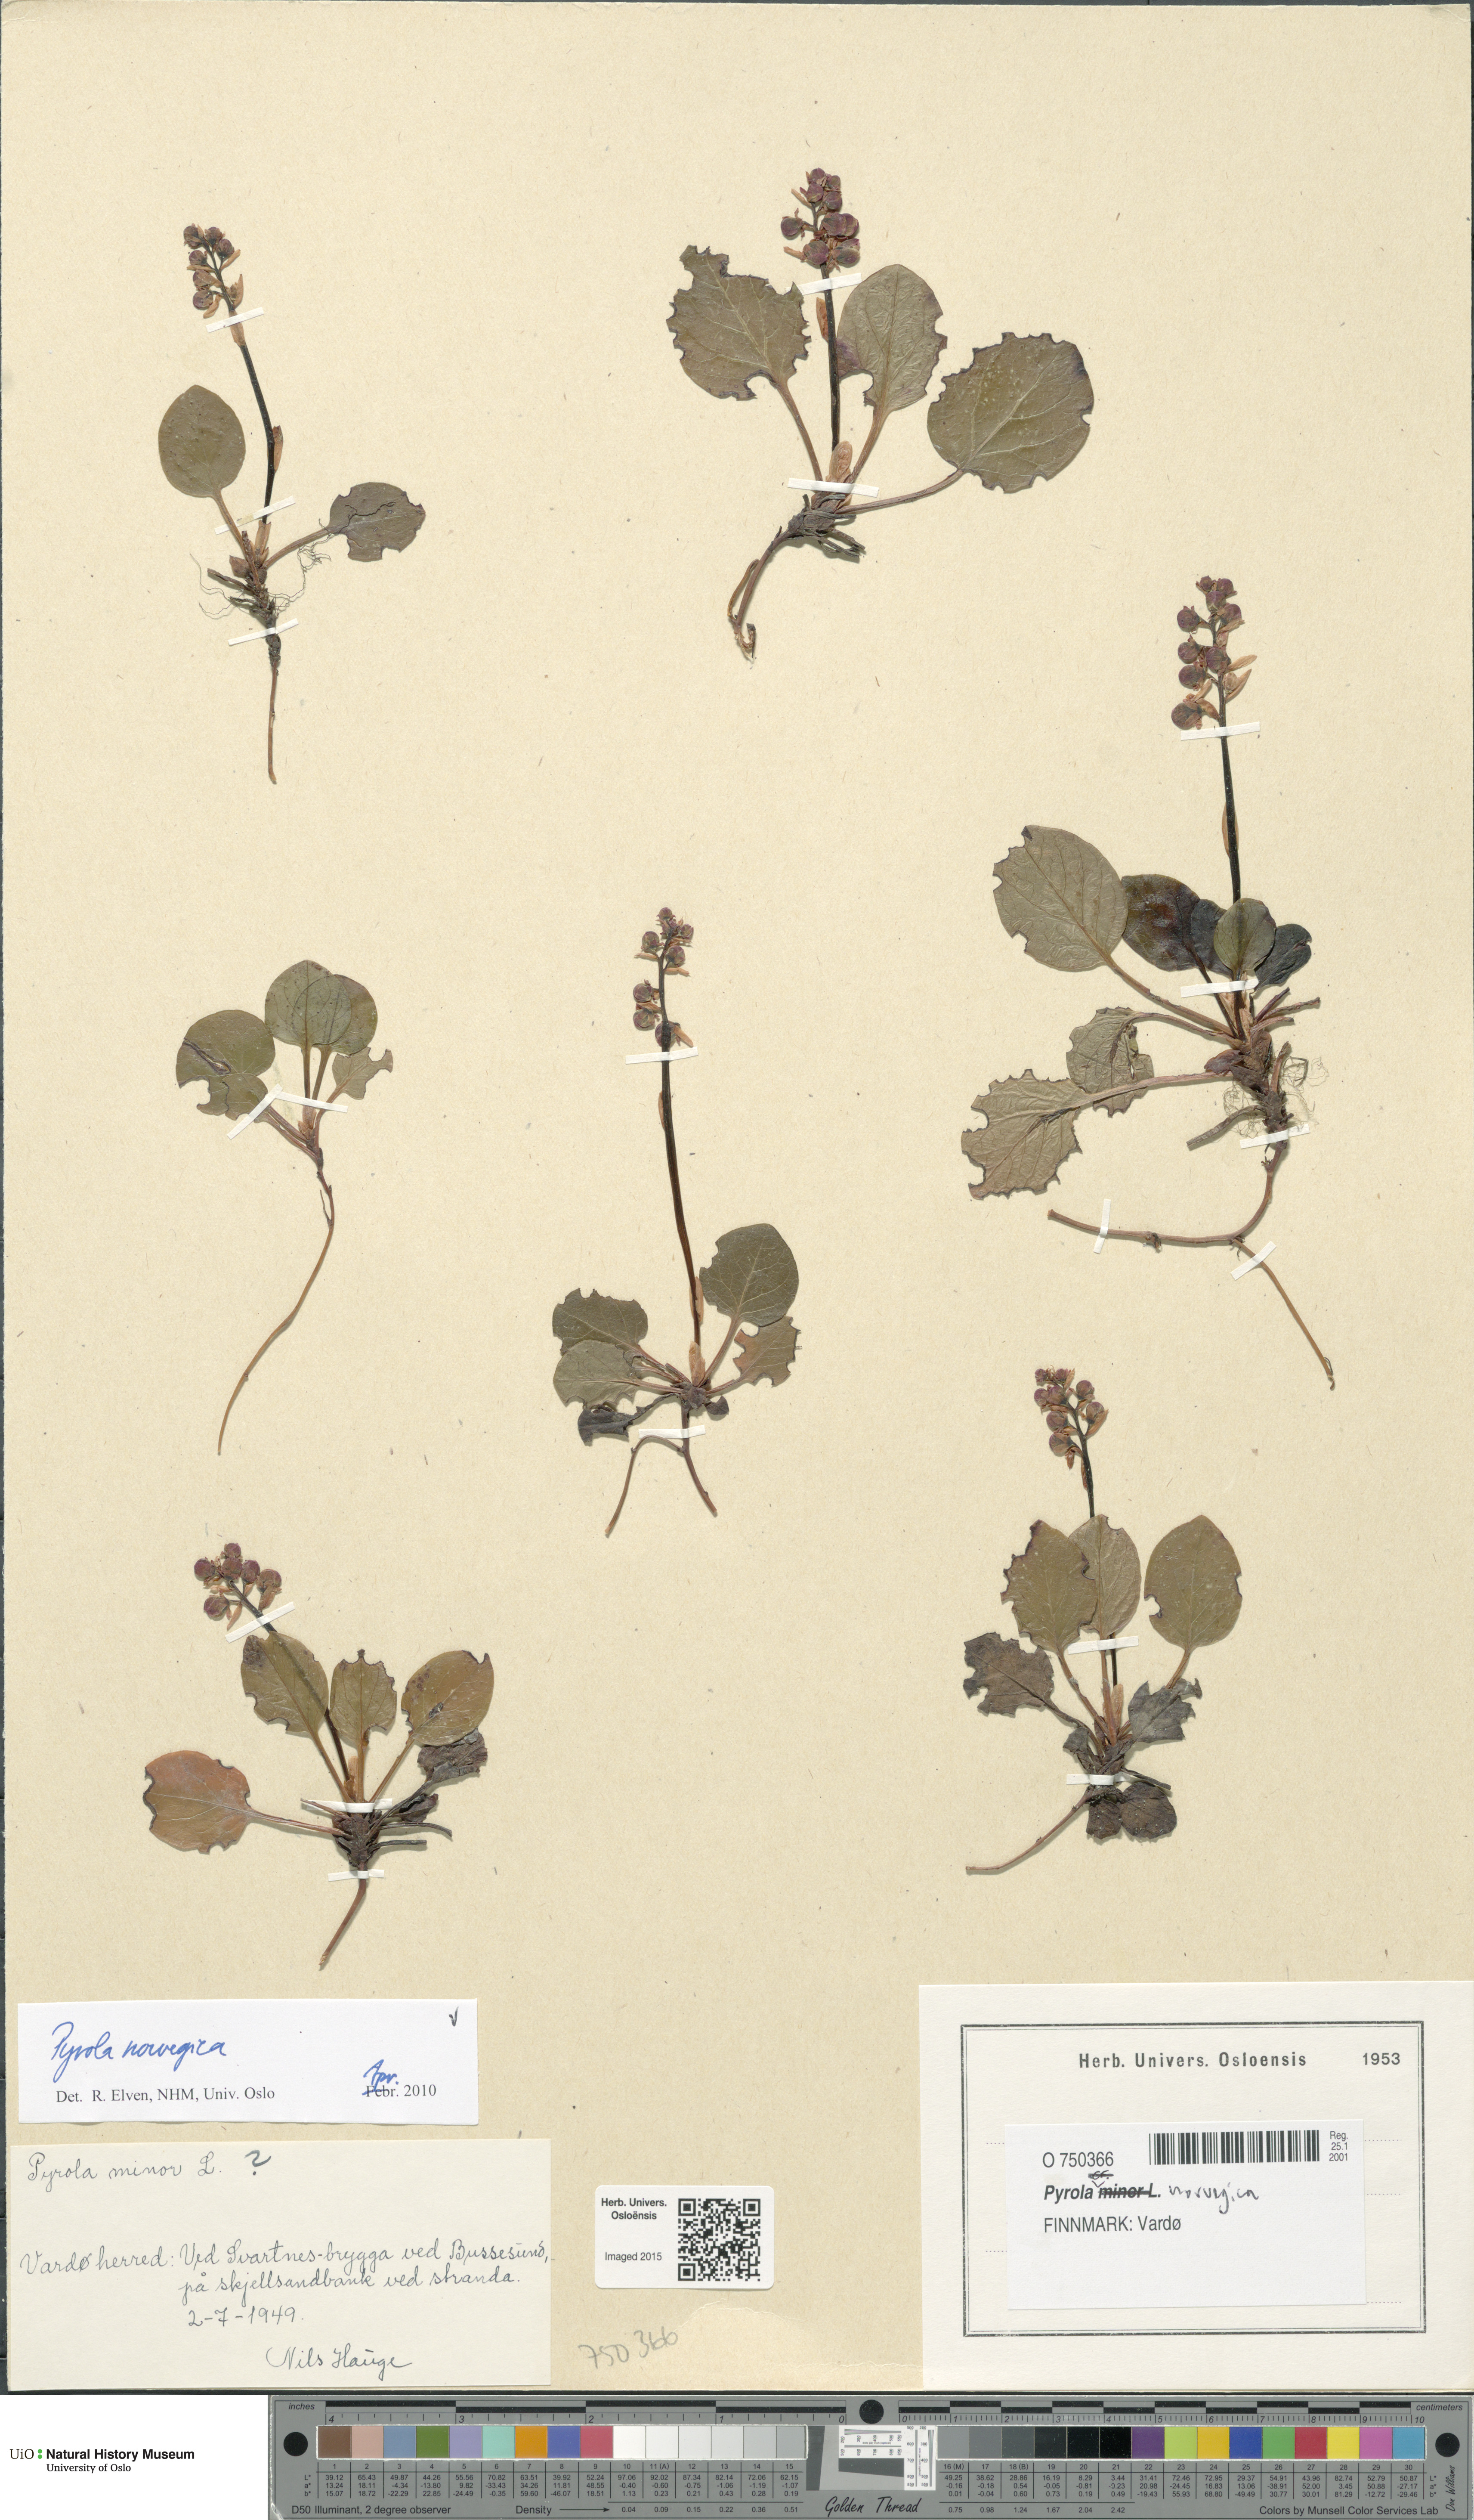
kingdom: Plantae
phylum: Tracheophyta
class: Magnoliopsida
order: Ericales
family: Ericaceae
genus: Pyrola
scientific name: Pyrola rotundifolia
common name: Round-leaved wintergreen
